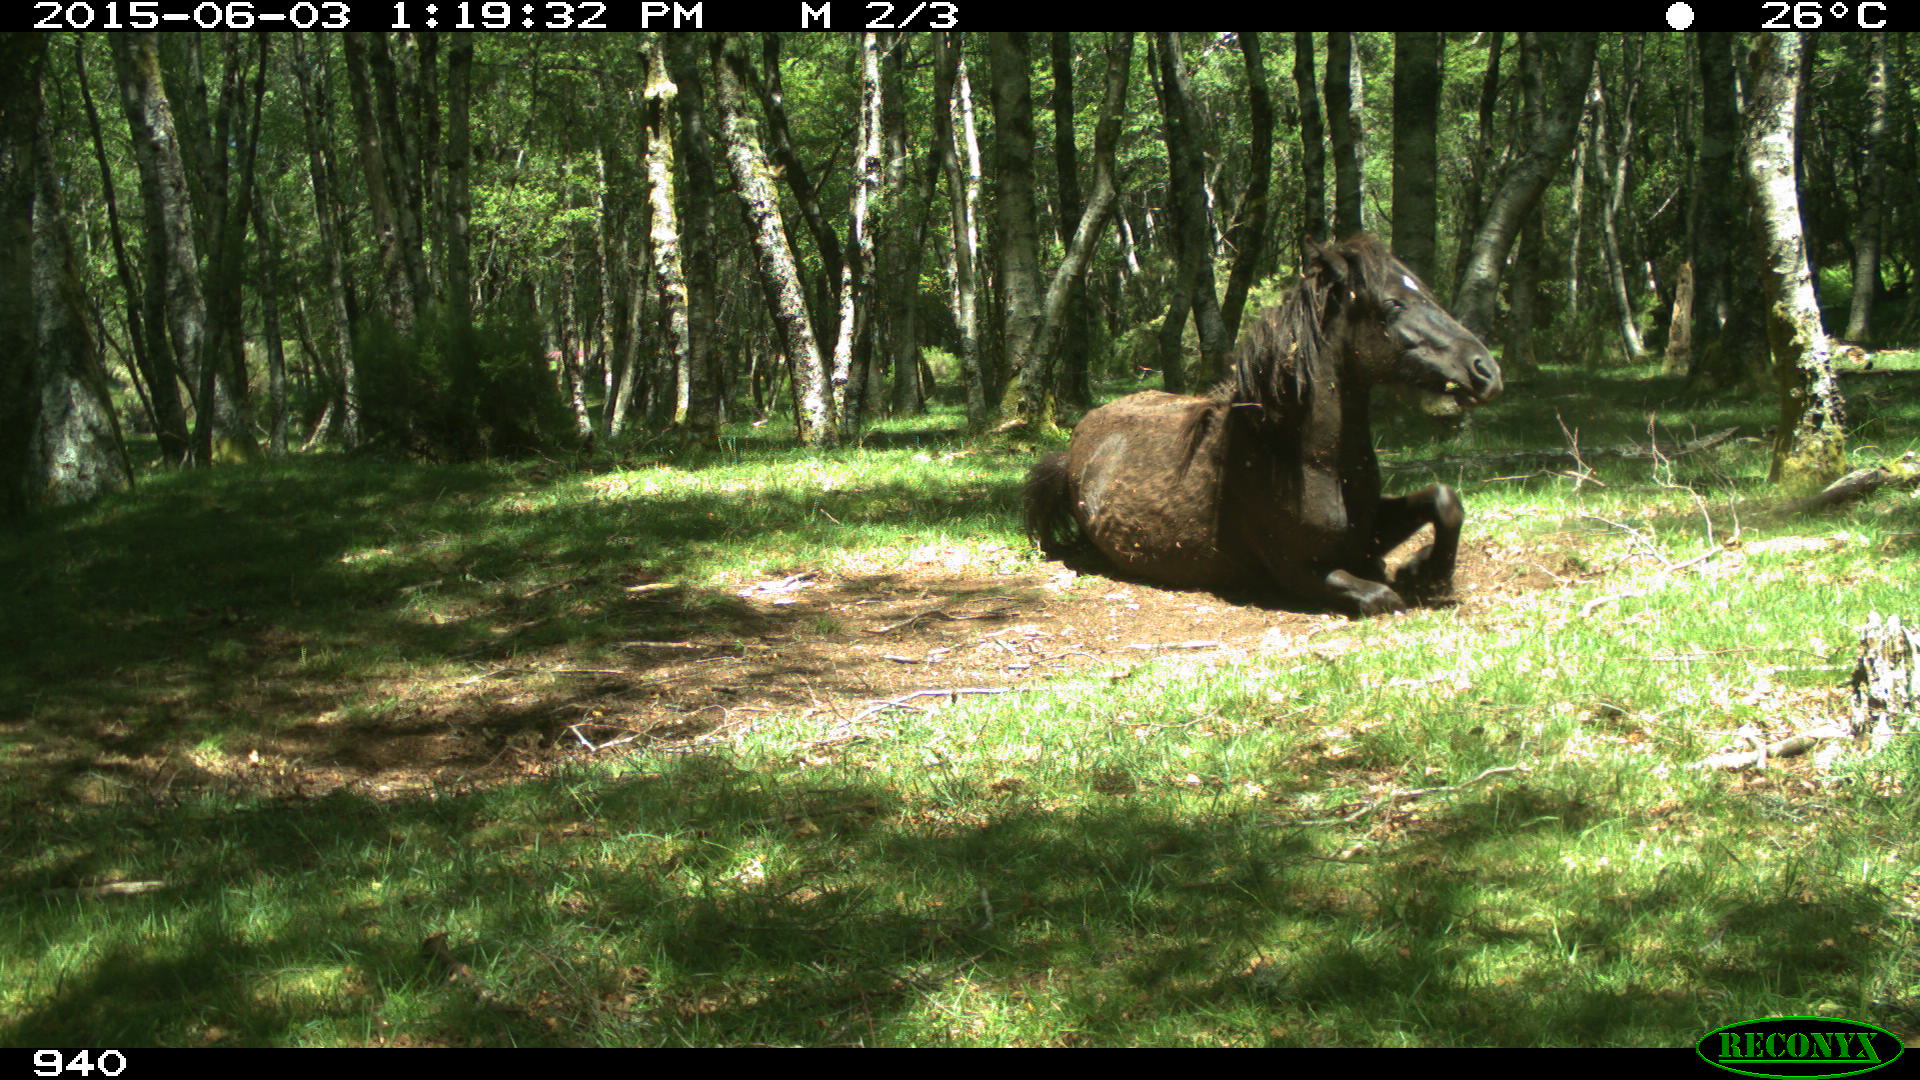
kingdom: Animalia
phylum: Chordata
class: Mammalia
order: Perissodactyla
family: Equidae
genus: Equus
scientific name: Equus caballus
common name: Horse
